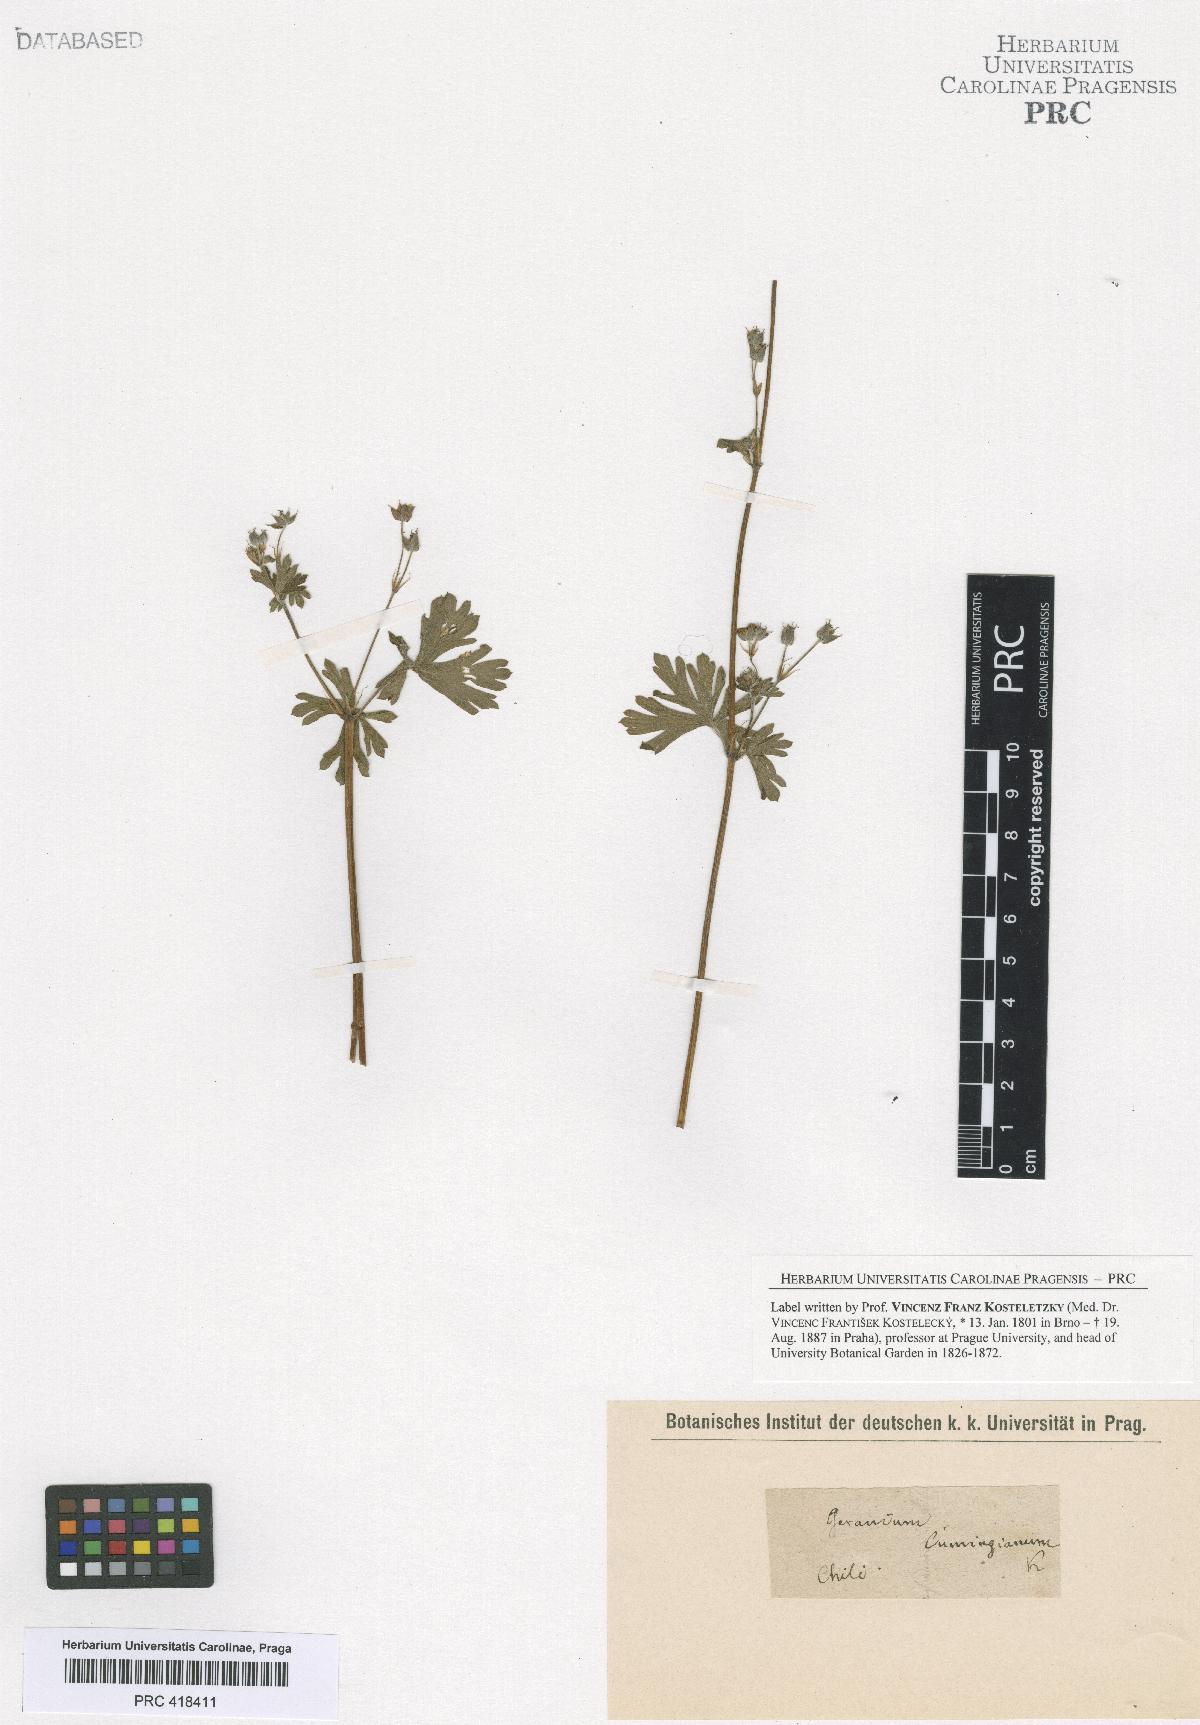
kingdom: Plantae
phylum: Tracheophyta
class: Magnoliopsida
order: Geraniales
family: Geraniaceae
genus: Geranium
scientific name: Geranium core-core
